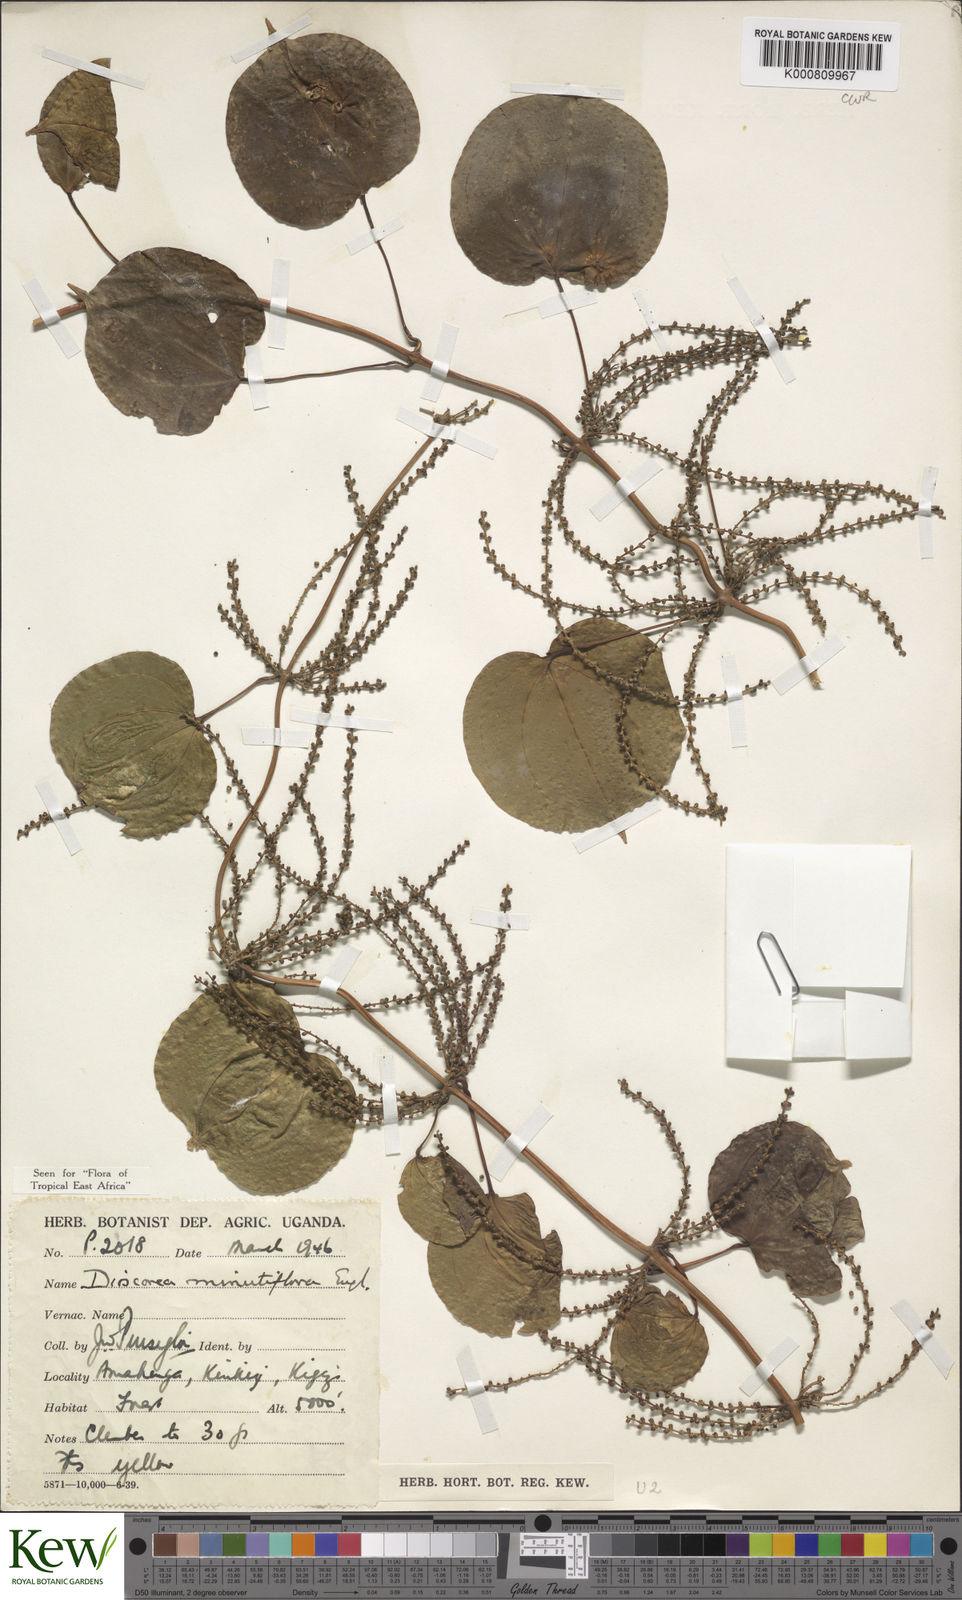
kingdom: Plantae
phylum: Tracheophyta
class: Liliopsida
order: Dioscoreales
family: Dioscoreaceae
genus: Dioscorea
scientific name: Dioscorea minutiflora
